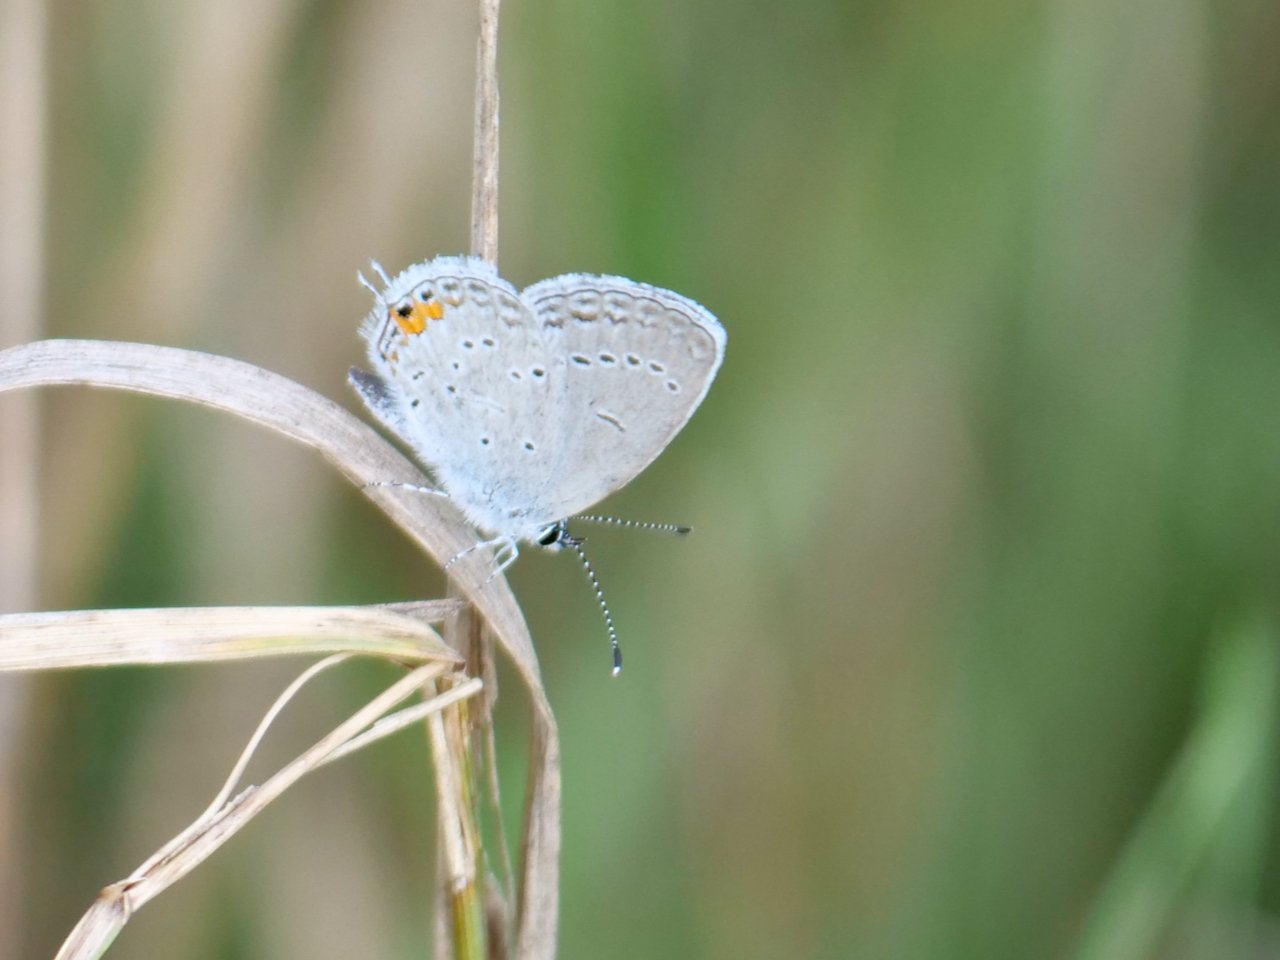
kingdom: Animalia
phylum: Arthropoda
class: Insecta
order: Lepidoptera
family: Lycaenidae
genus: Elkalyce
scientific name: Elkalyce comyntas
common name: Eastern Tailed-Blue
